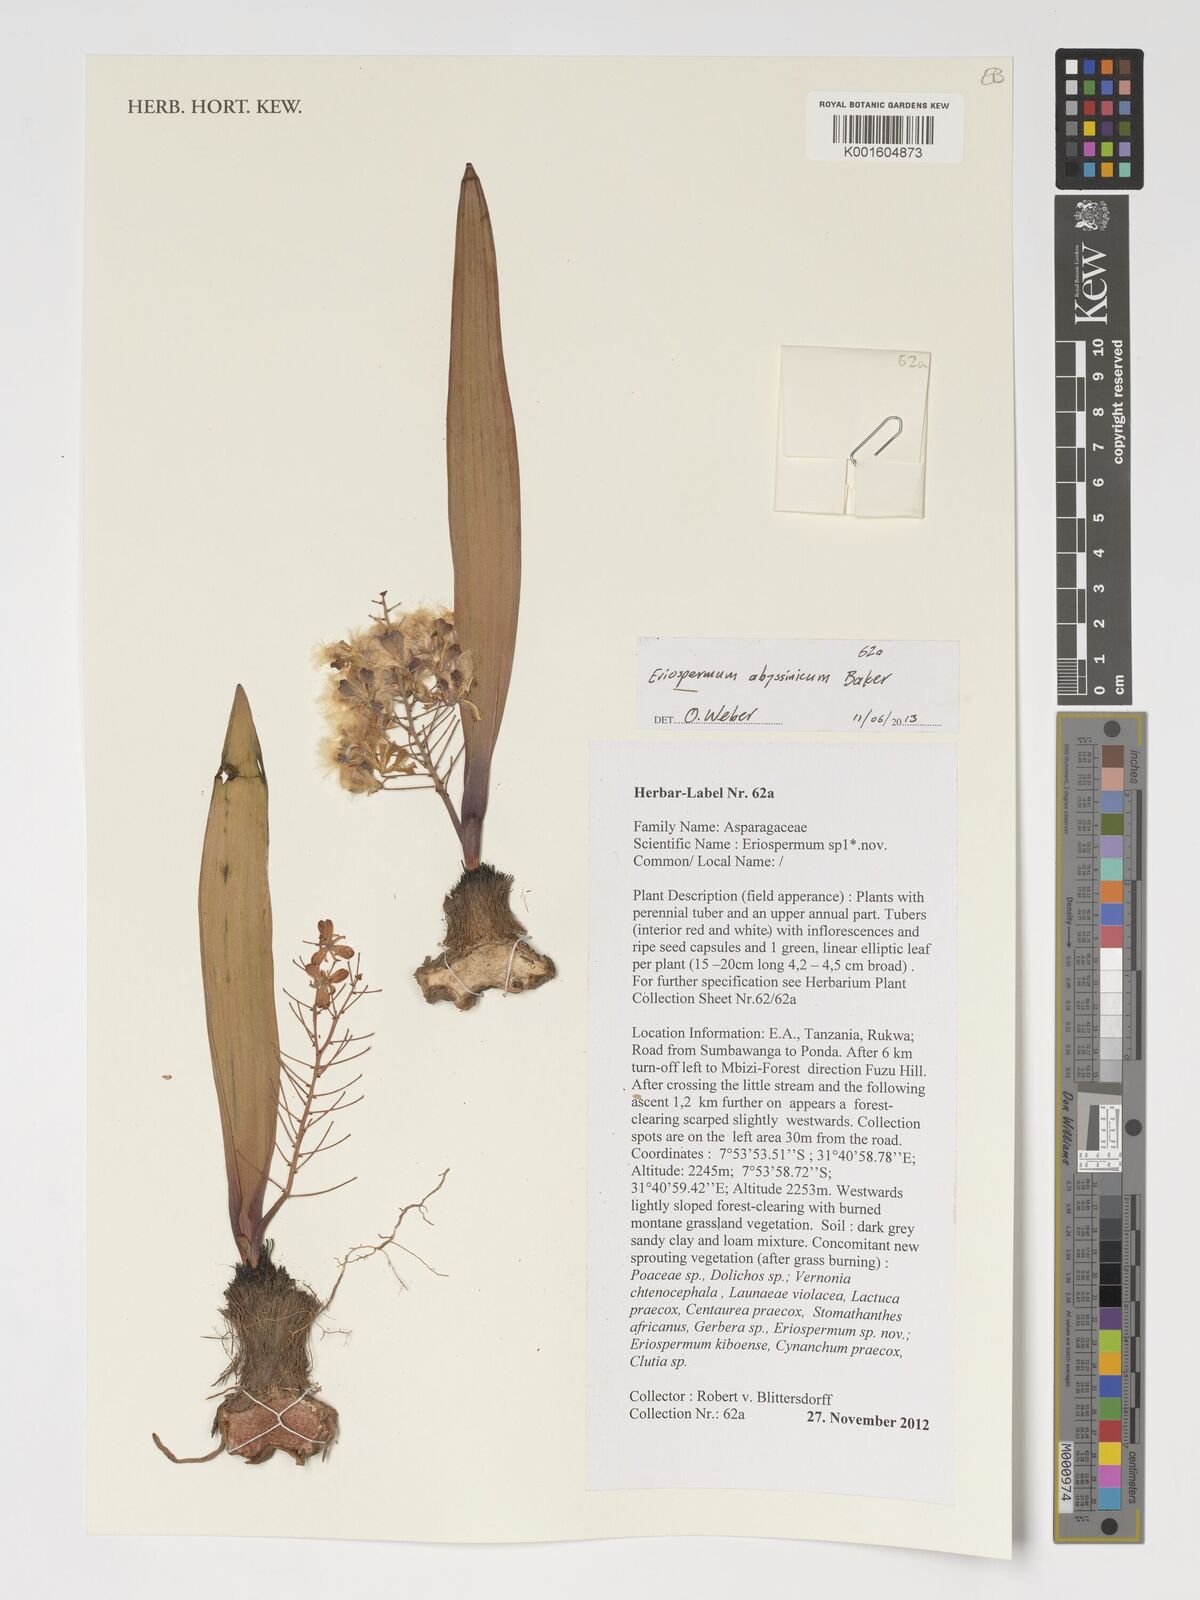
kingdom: Plantae
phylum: Tracheophyta
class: Liliopsida
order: Asparagales
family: Asparagaceae
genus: Eriospermum
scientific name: Eriospermum abyssinicum
